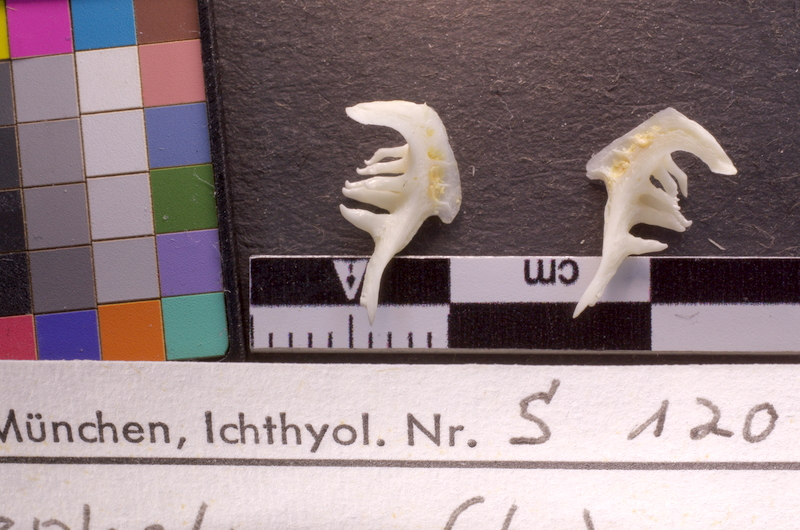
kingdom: Animalia
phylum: Chordata
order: Cypriniformes
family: Cyprinidae
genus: Squalius
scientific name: Squalius cephalus
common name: Chub
